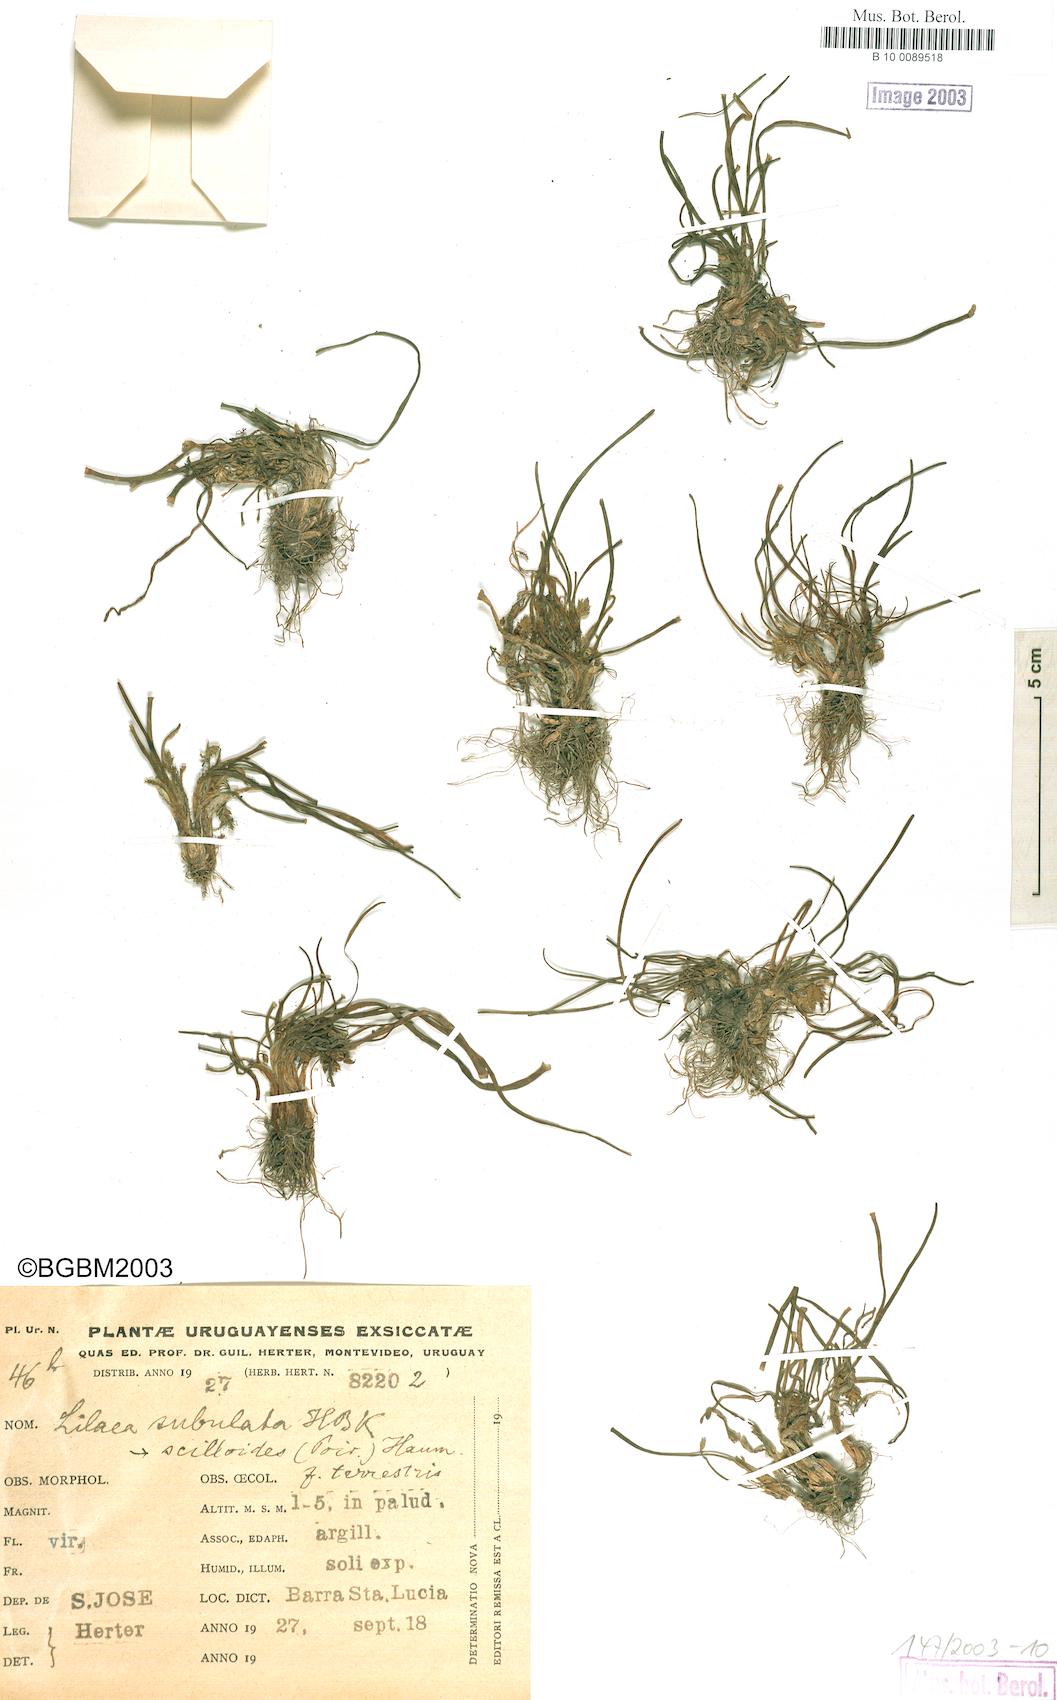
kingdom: Plantae
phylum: Tracheophyta
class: Liliopsida
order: Alismatales
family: Juncaginaceae
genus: Triglochin
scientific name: Triglochin scilloides
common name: Awl-leaved lilaea
